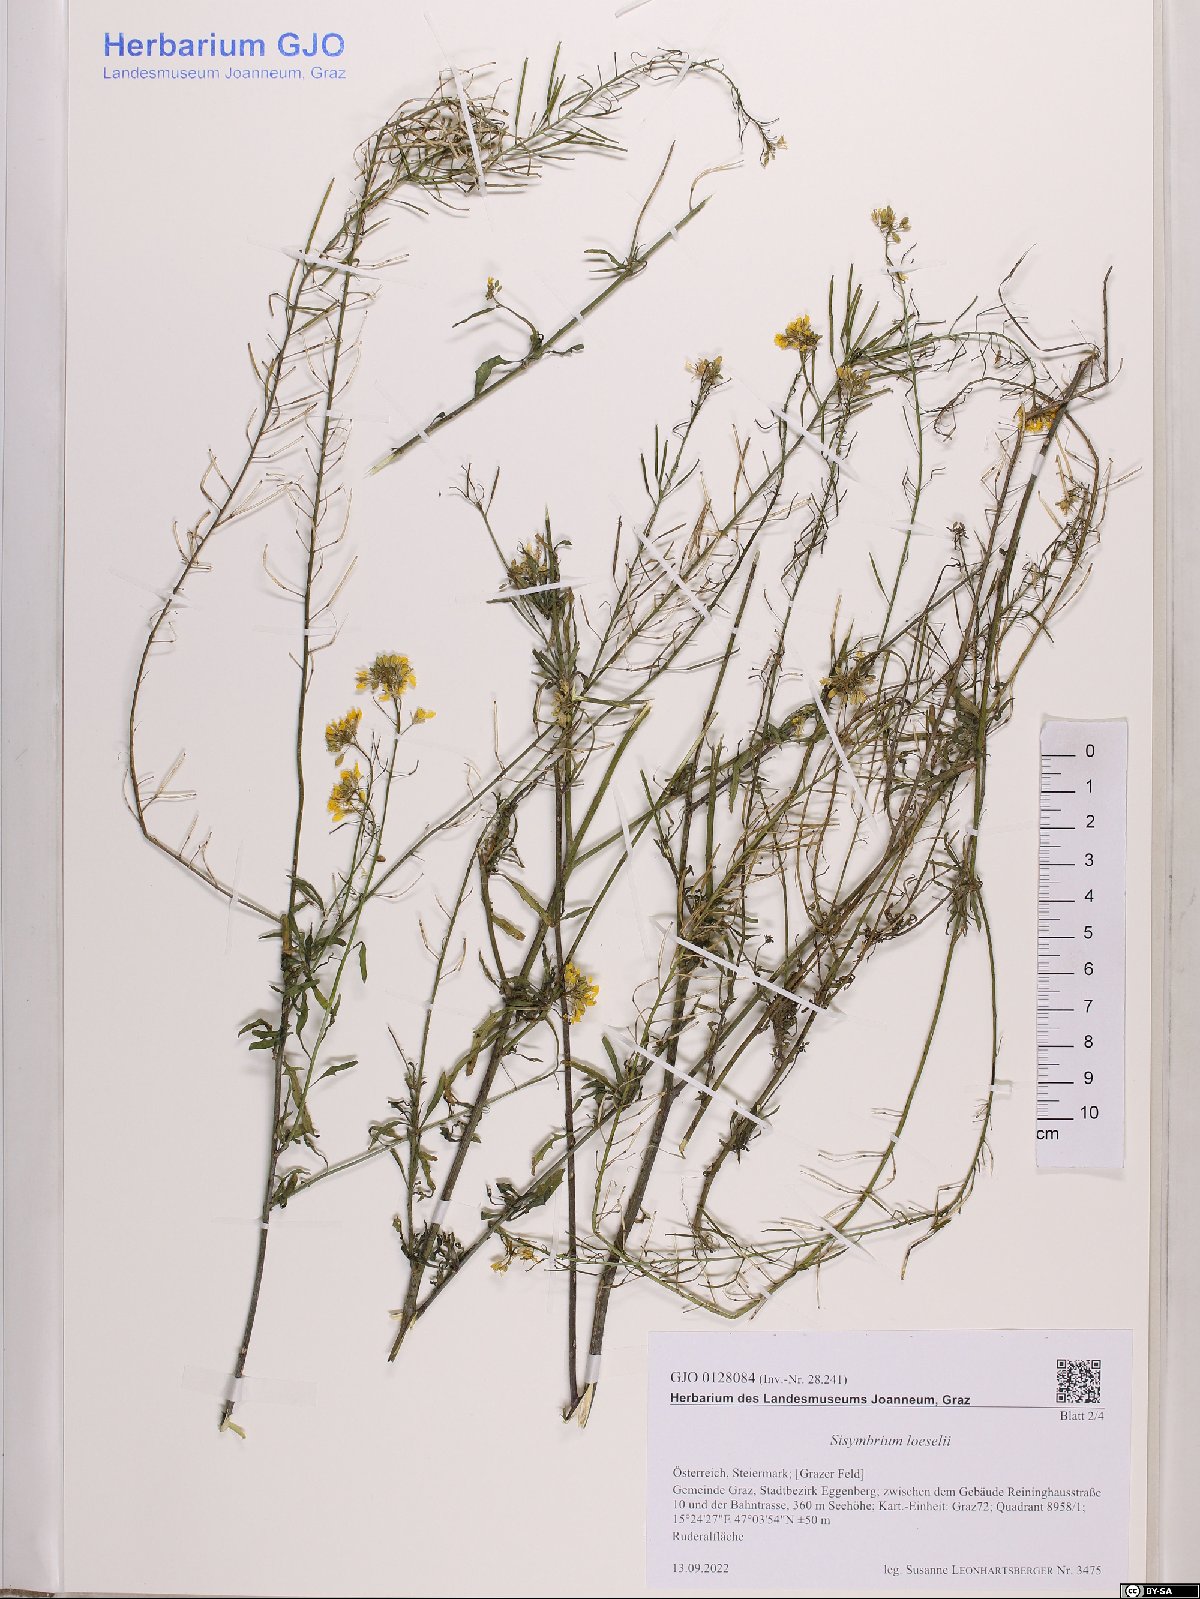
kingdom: Plantae
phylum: Tracheophyta
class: Magnoliopsida
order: Brassicales
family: Brassicaceae
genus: Sisymbrium
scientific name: Sisymbrium loeselii
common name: False london-rocket
